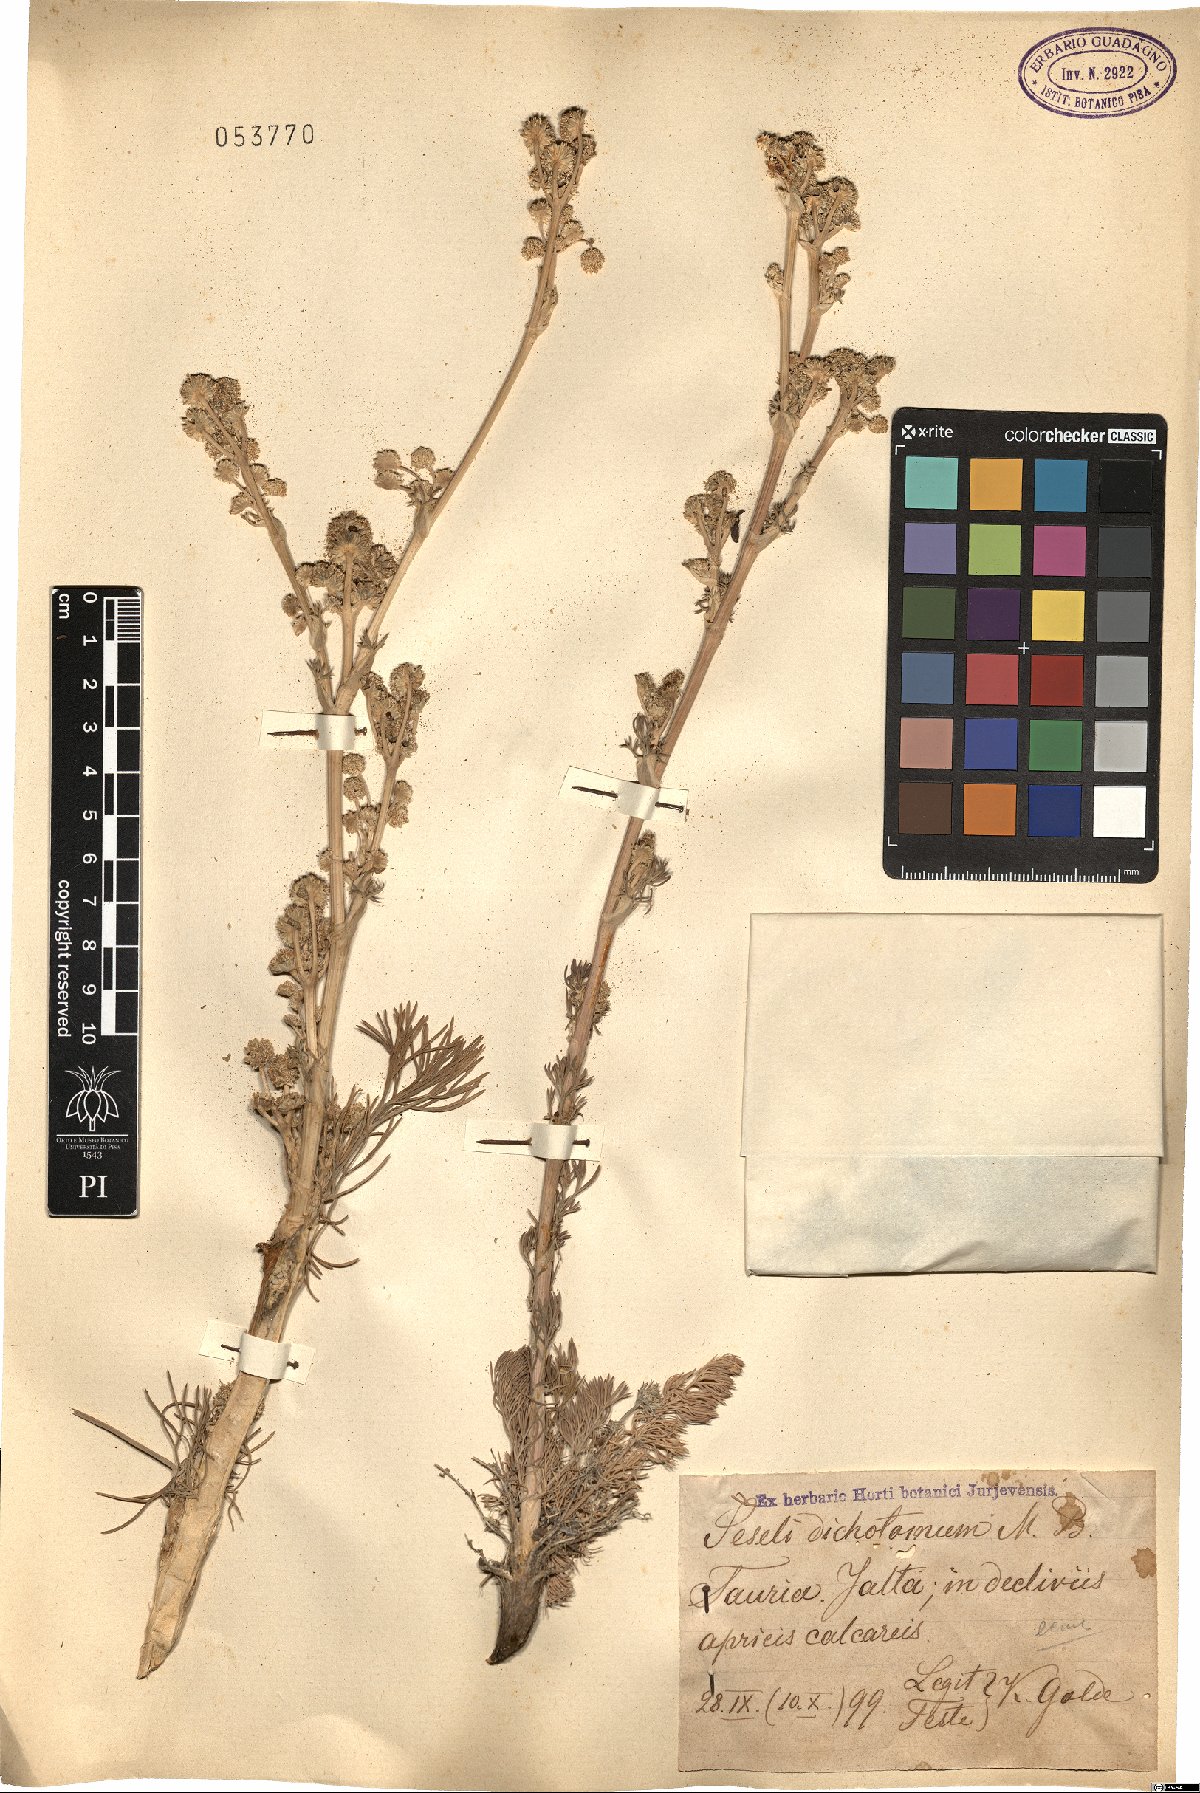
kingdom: Plantae
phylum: Tracheophyta
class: Magnoliopsida
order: Apiales
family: Apiaceae
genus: Hippomarathrum
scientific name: Hippomarathrum dichotomum
